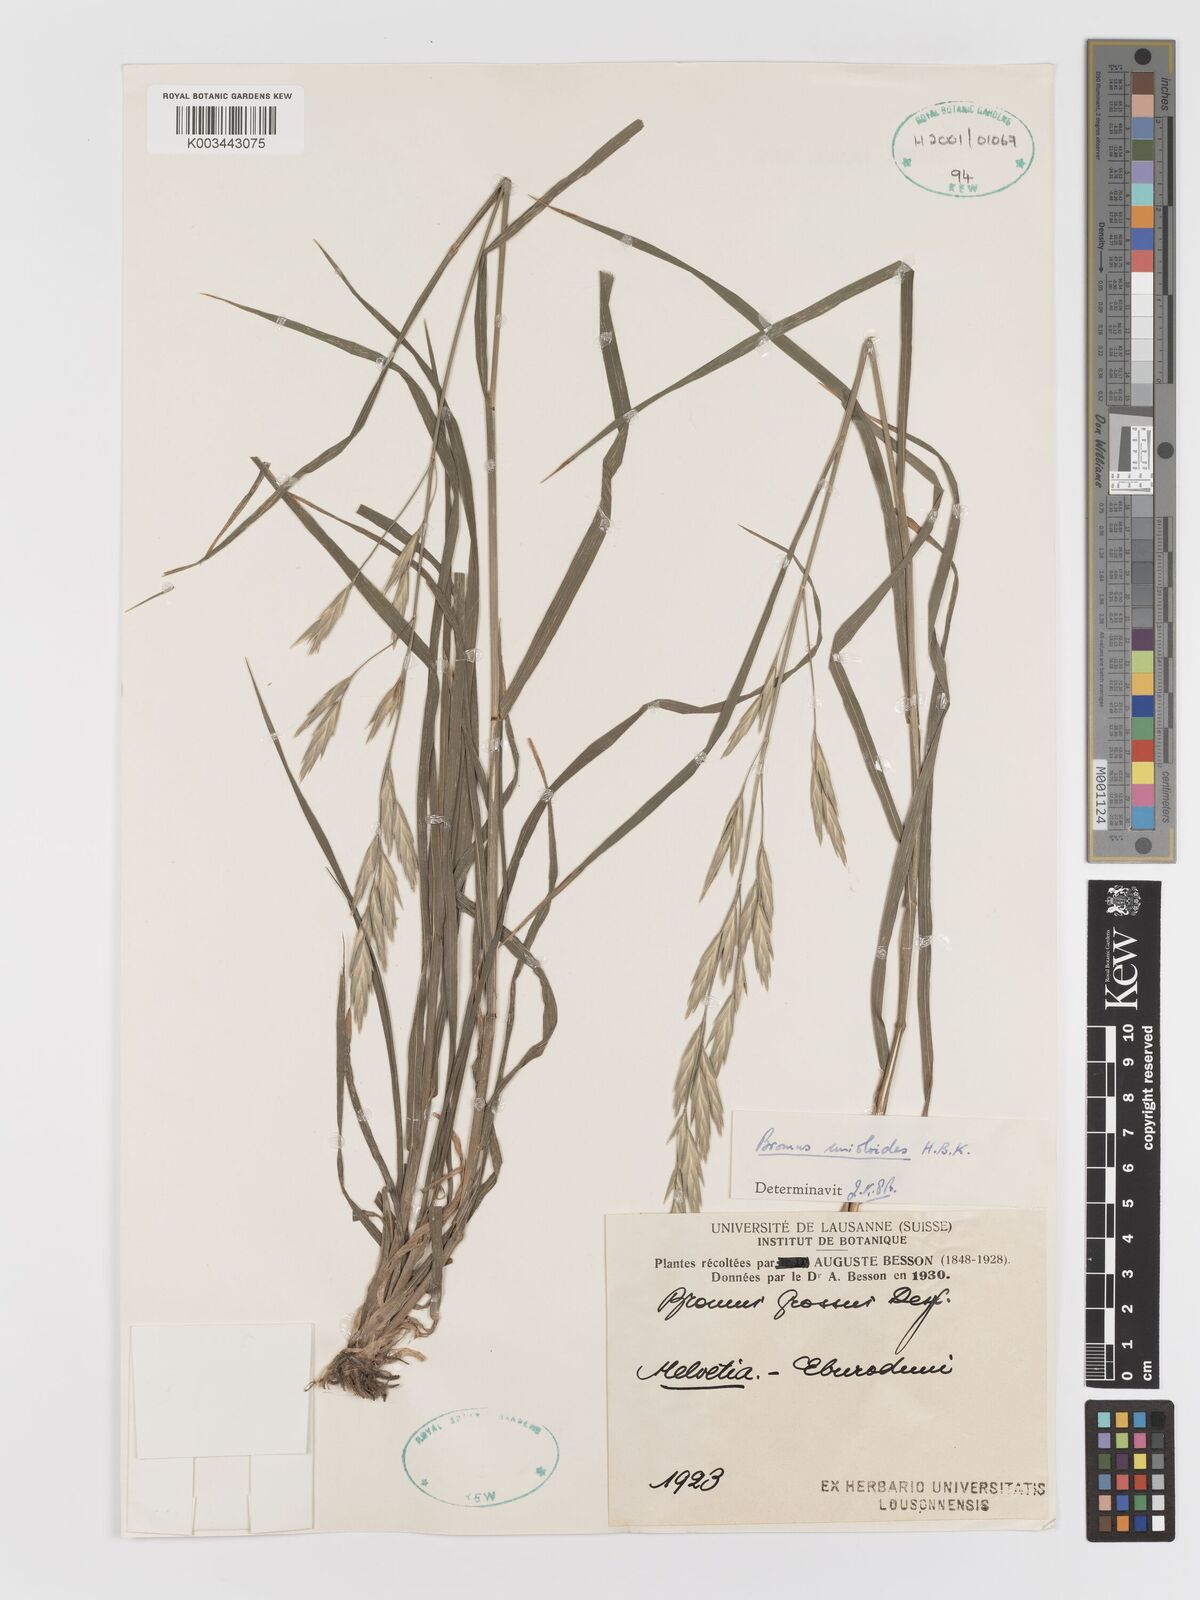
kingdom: Plantae
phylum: Tracheophyta
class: Liliopsida
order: Poales
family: Poaceae
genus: Bromus
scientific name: Bromus catharticus
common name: Rescuegrass
